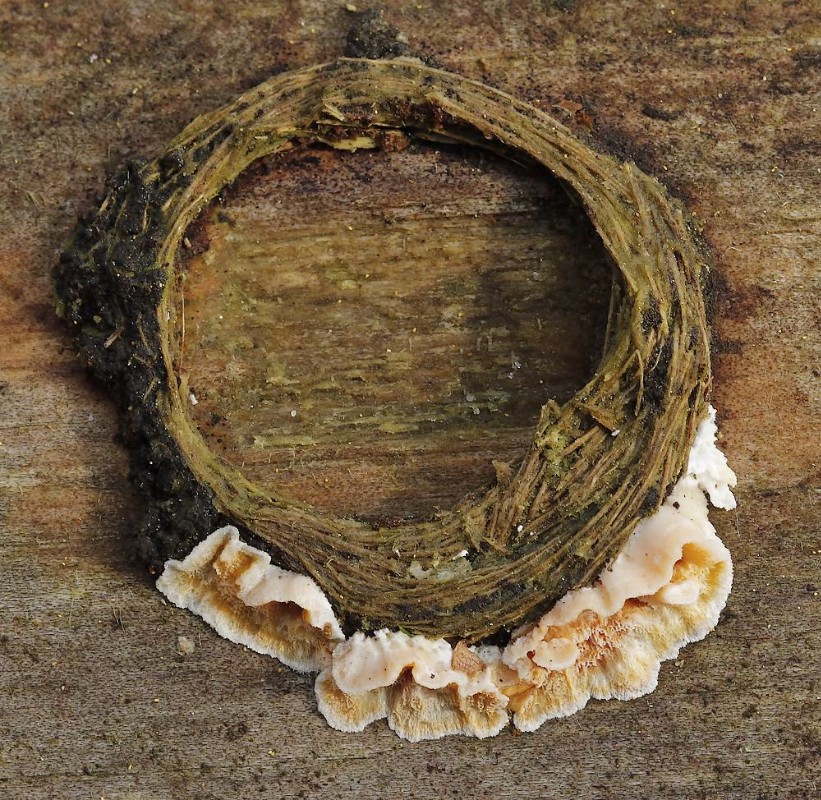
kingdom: Fungi
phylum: Basidiomycota
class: Agaricomycetes
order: Polyporales
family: Incrustoporiaceae
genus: Skeletocutis
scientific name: Skeletocutis amorpha
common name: orange krystalporesvamp
